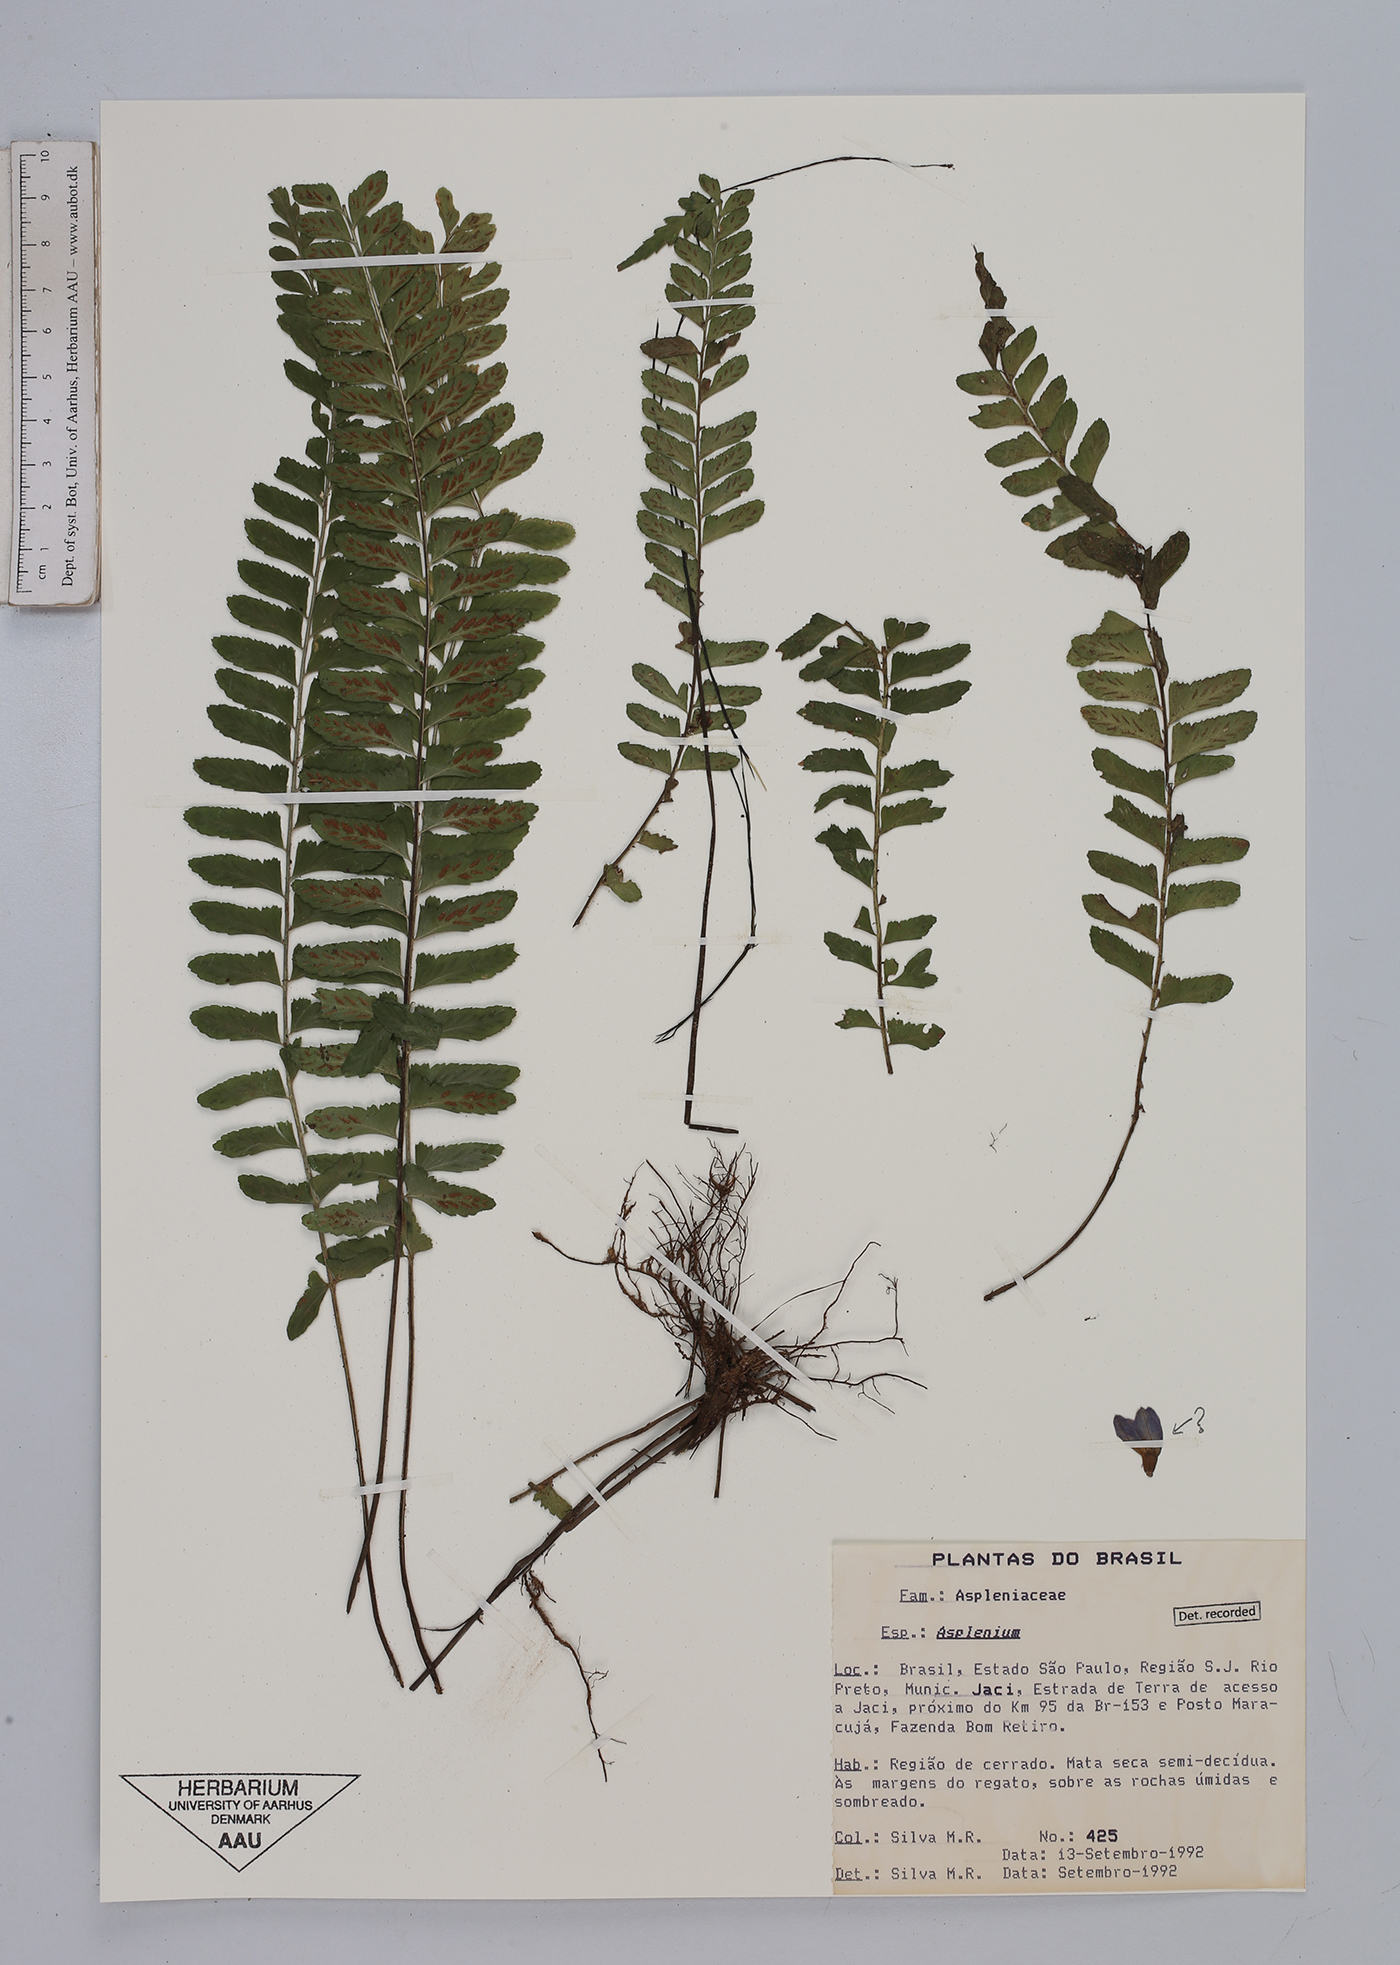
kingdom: Plantae
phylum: Tracheophyta
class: Polypodiopsida
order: Polypodiales
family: Aspleniaceae
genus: Asplenium
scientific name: Asplenium
